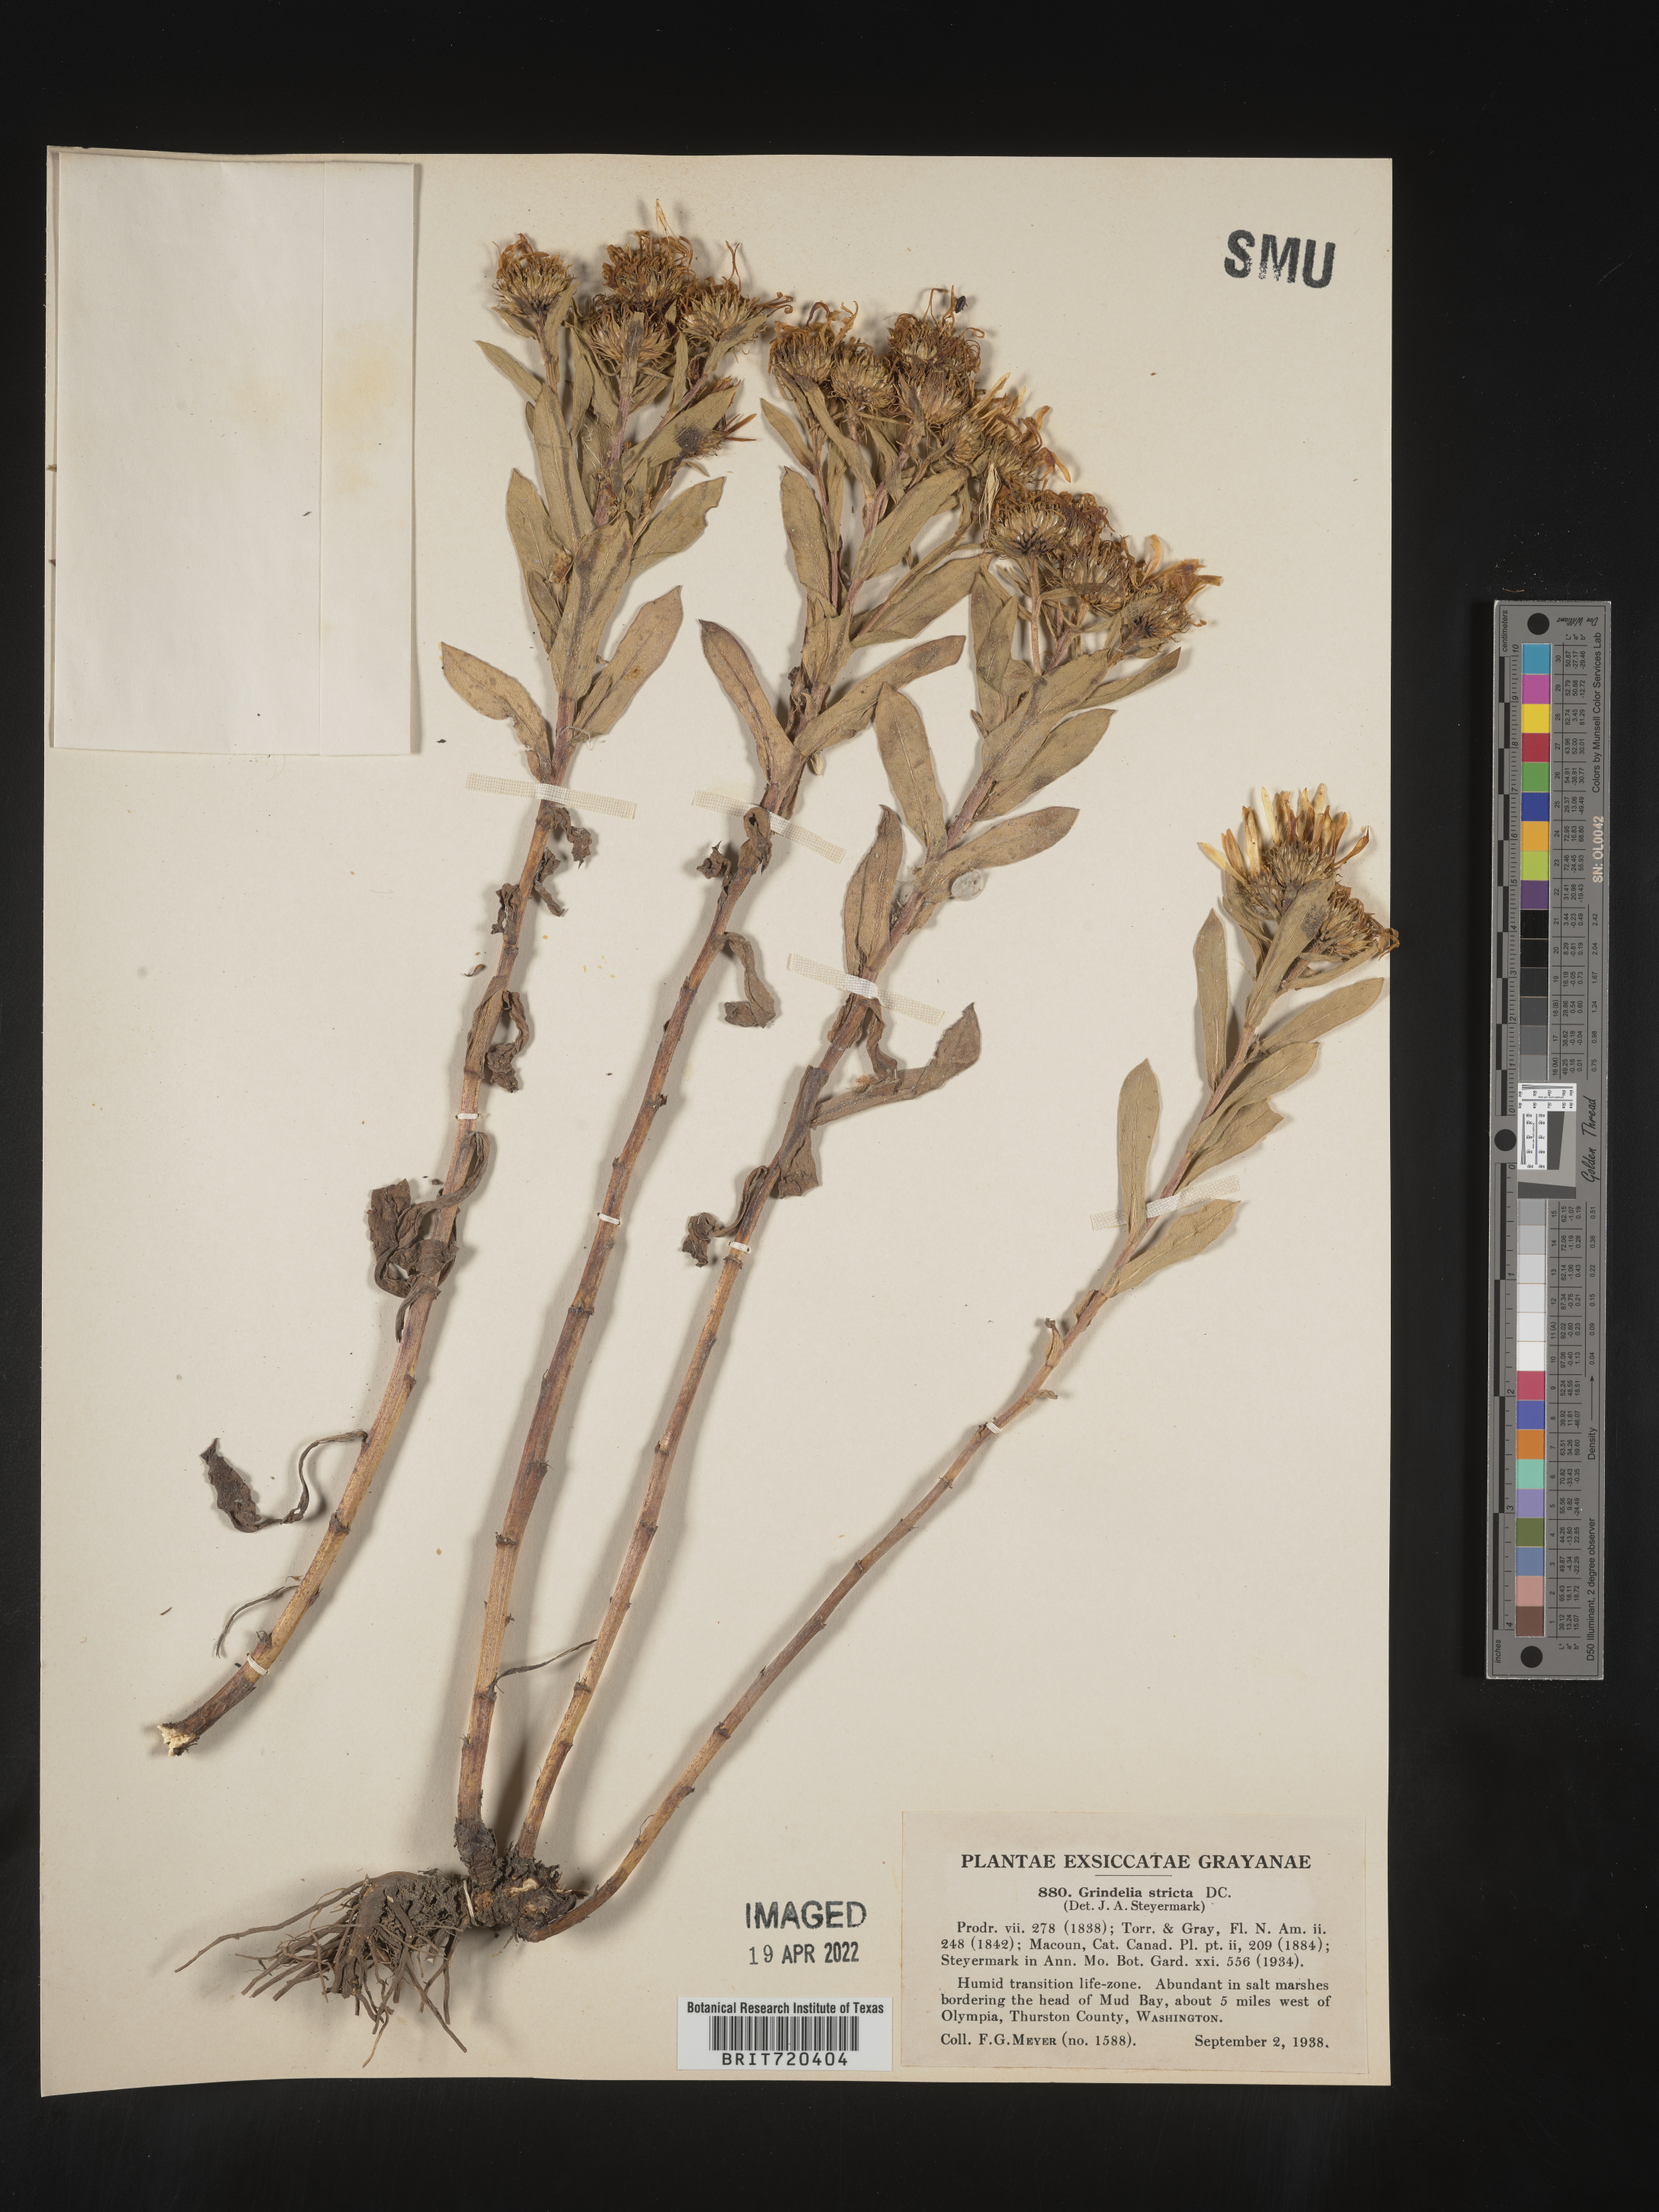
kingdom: Plantae
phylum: Tracheophyta
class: Magnoliopsida
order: Asterales
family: Asteraceae
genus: Grindelia
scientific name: Grindelia hirsutula
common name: Hairy gumweed
